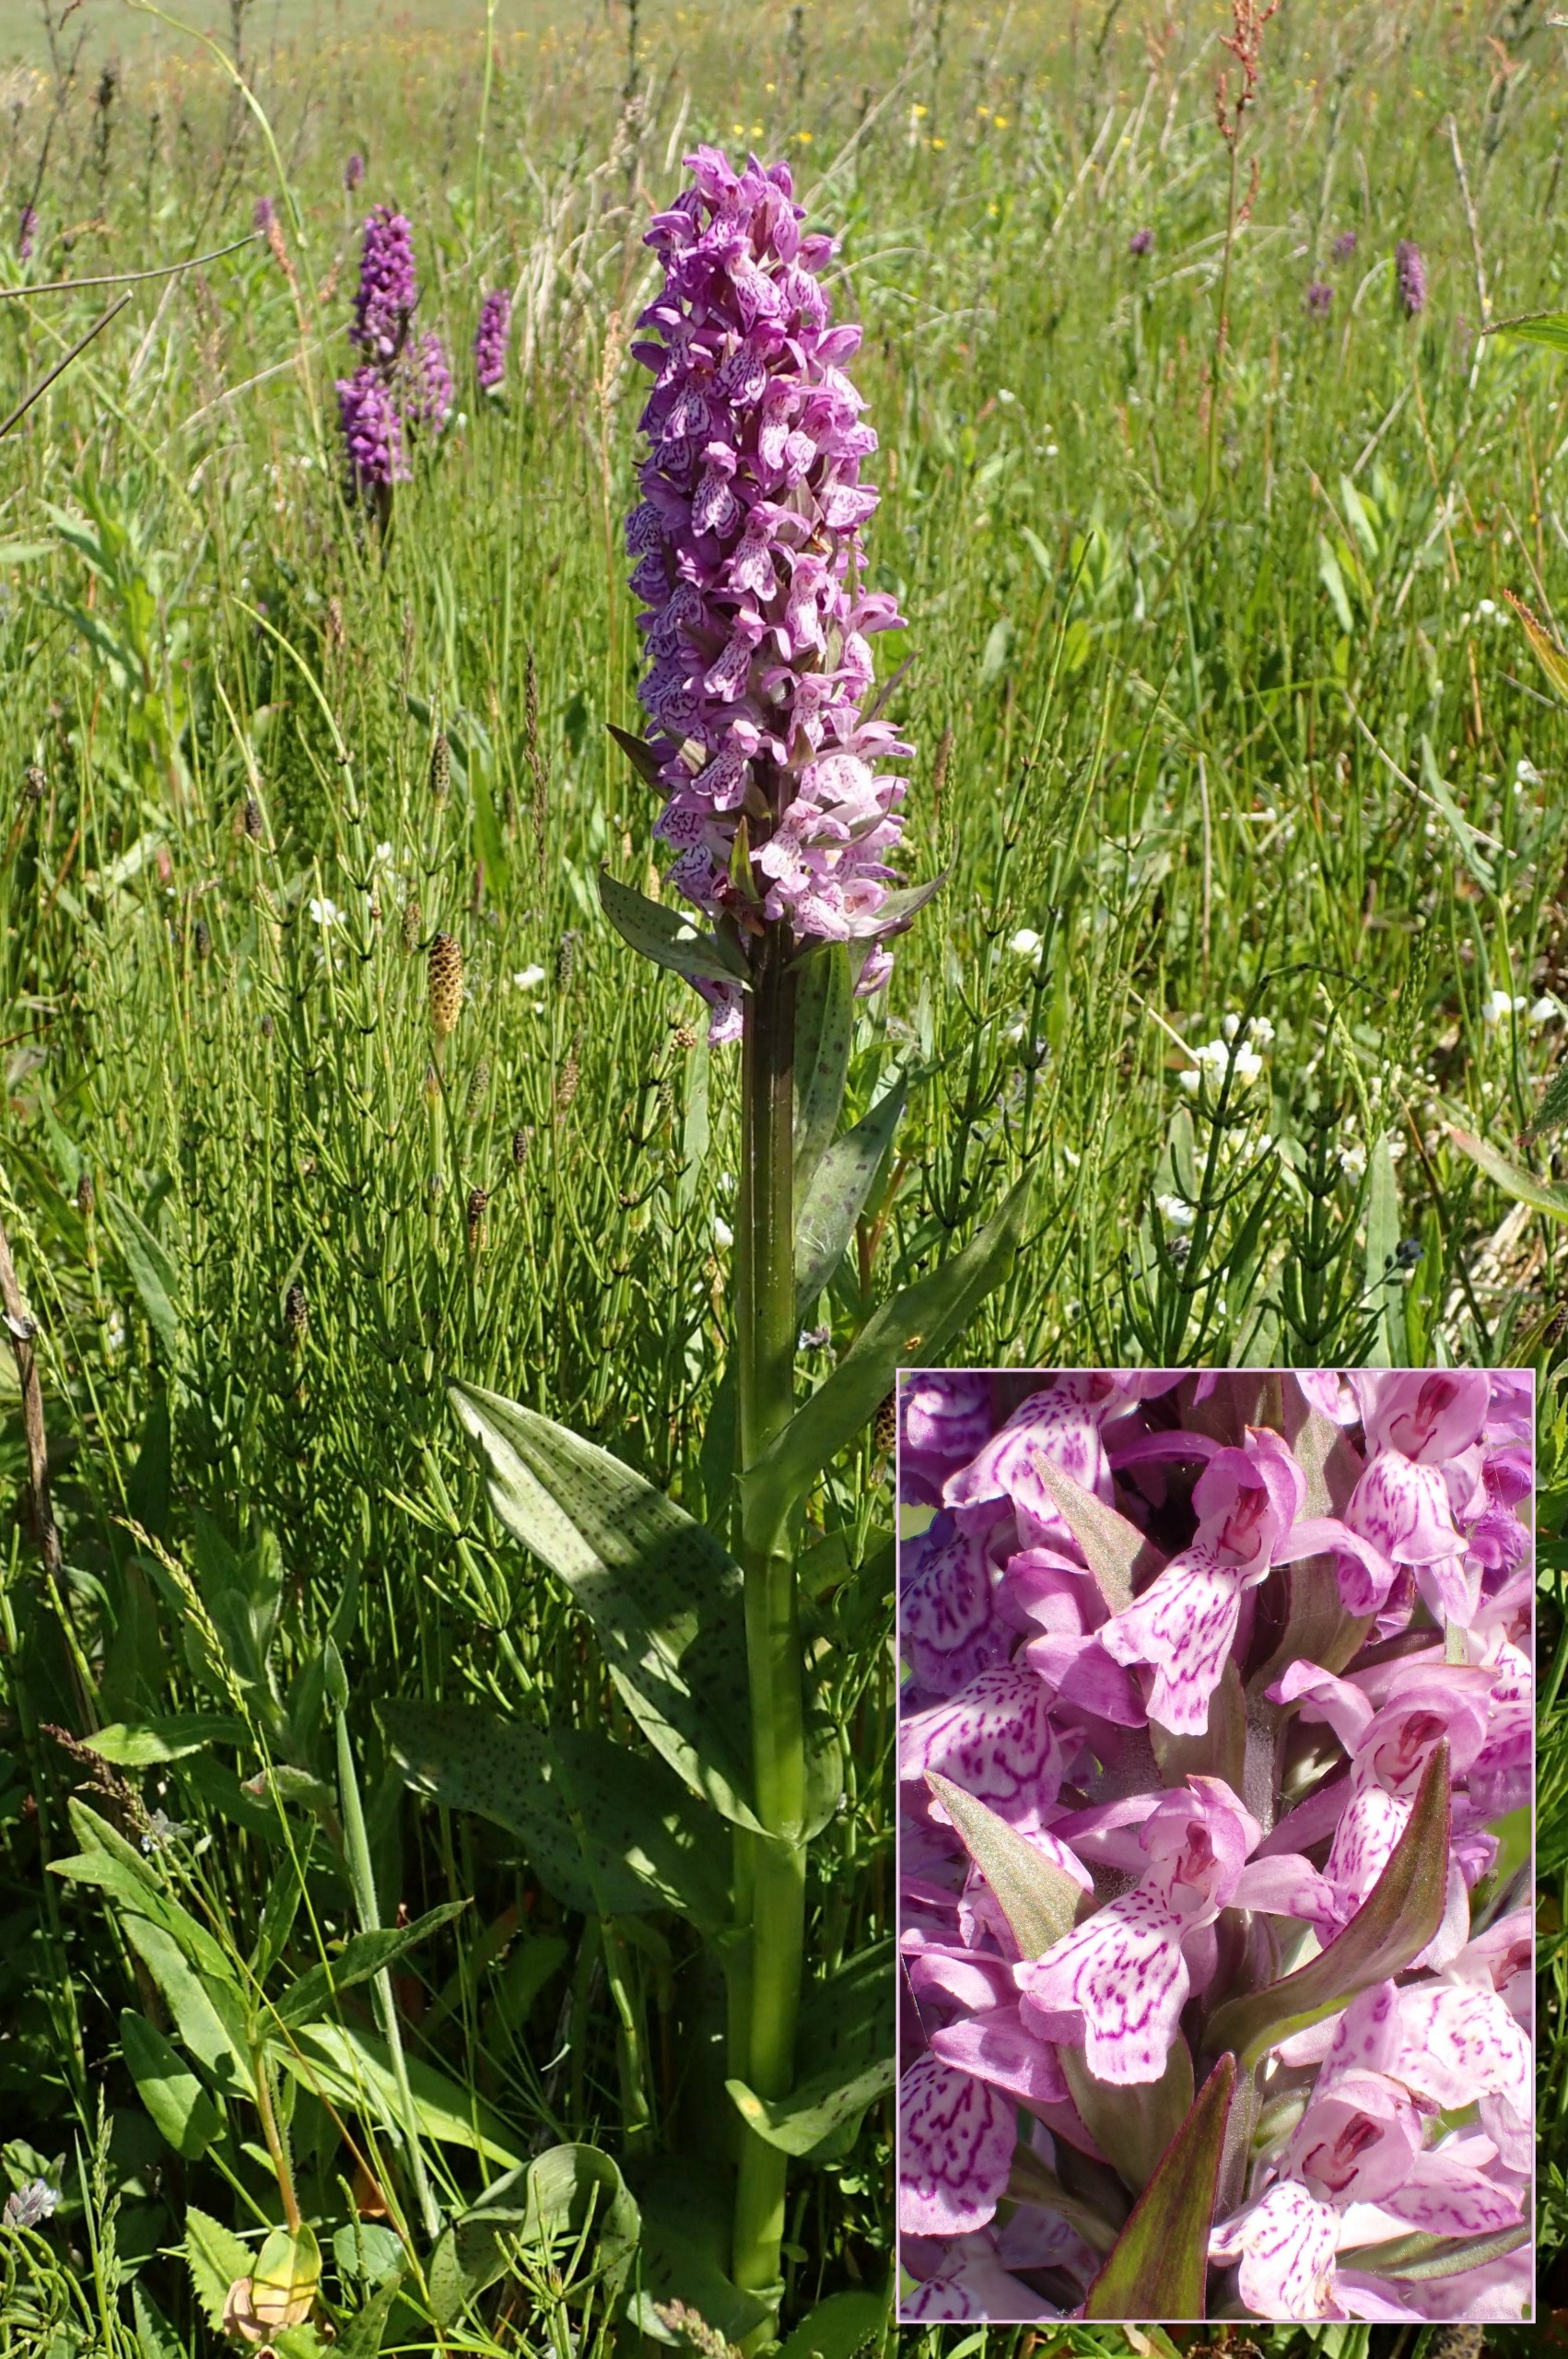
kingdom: Plantae
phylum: Tracheophyta
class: Liliopsida
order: Asparagales
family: Orchidaceae
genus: Dactylorhiza
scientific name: Dactylorhiza majalis
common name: Maj-gøgeurt
